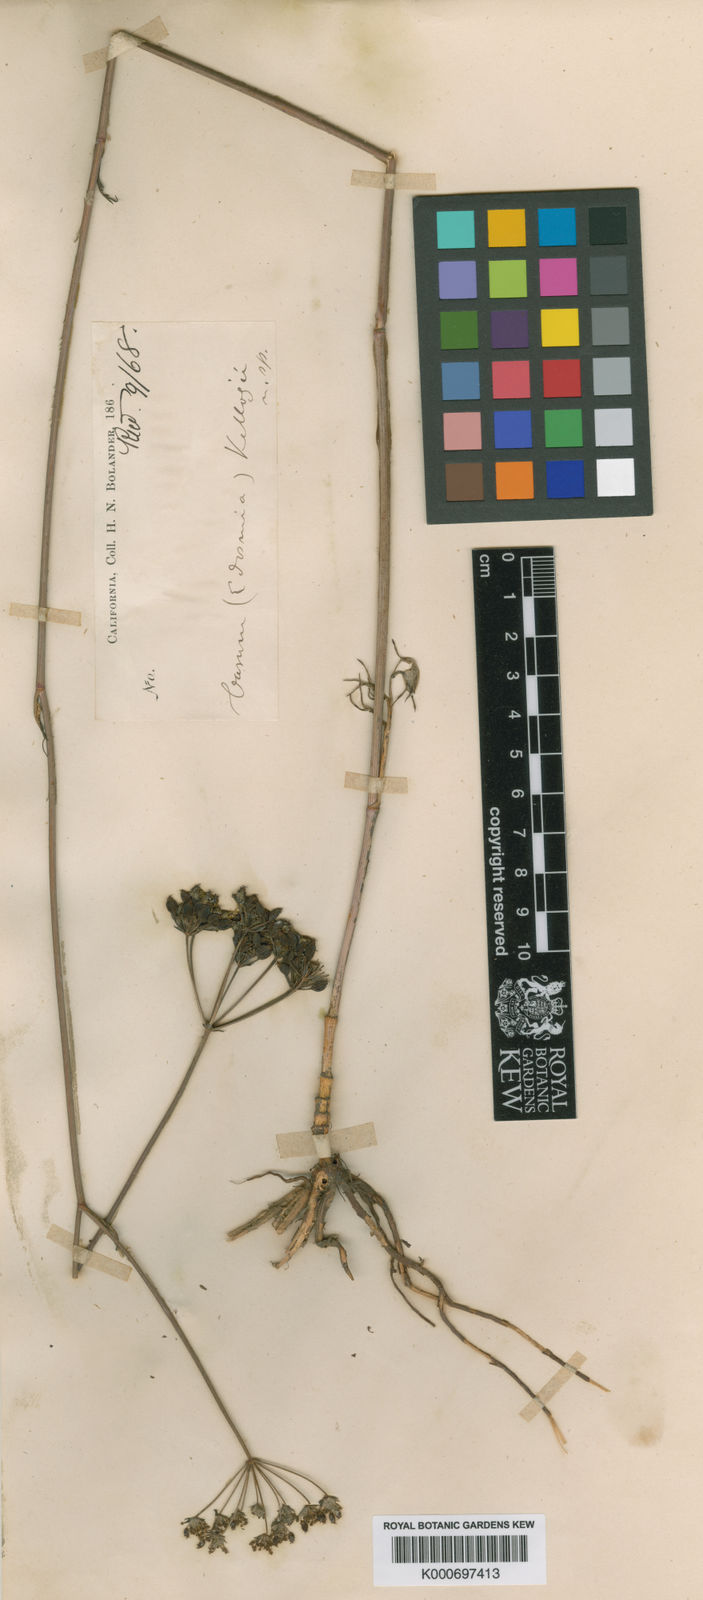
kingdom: Plantae
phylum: Tracheophyta
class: Magnoliopsida
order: Apiales
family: Apiaceae
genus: Perideridia
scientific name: Perideridia kelloggii
